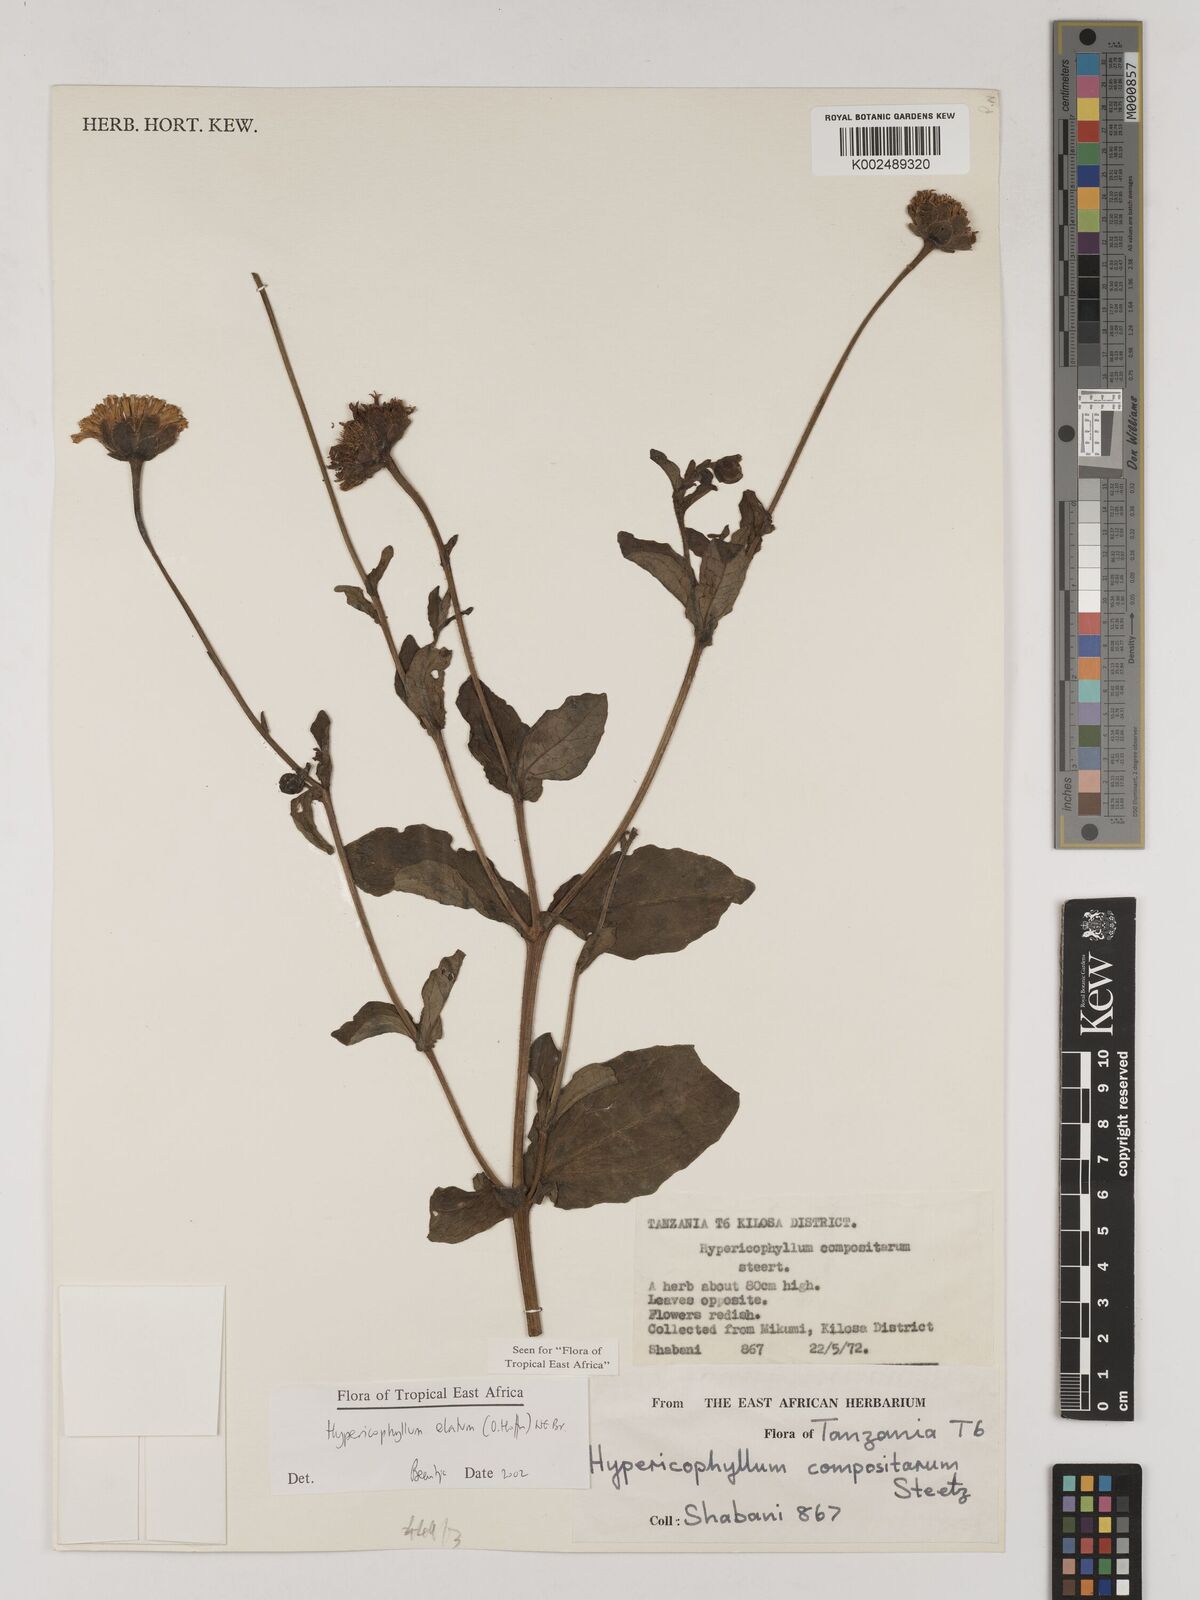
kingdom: Plantae
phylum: Tracheophyta
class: Magnoliopsida
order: Asterales
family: Asteraceae
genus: Hypericophyllum
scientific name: Hypericophyllum elatum
